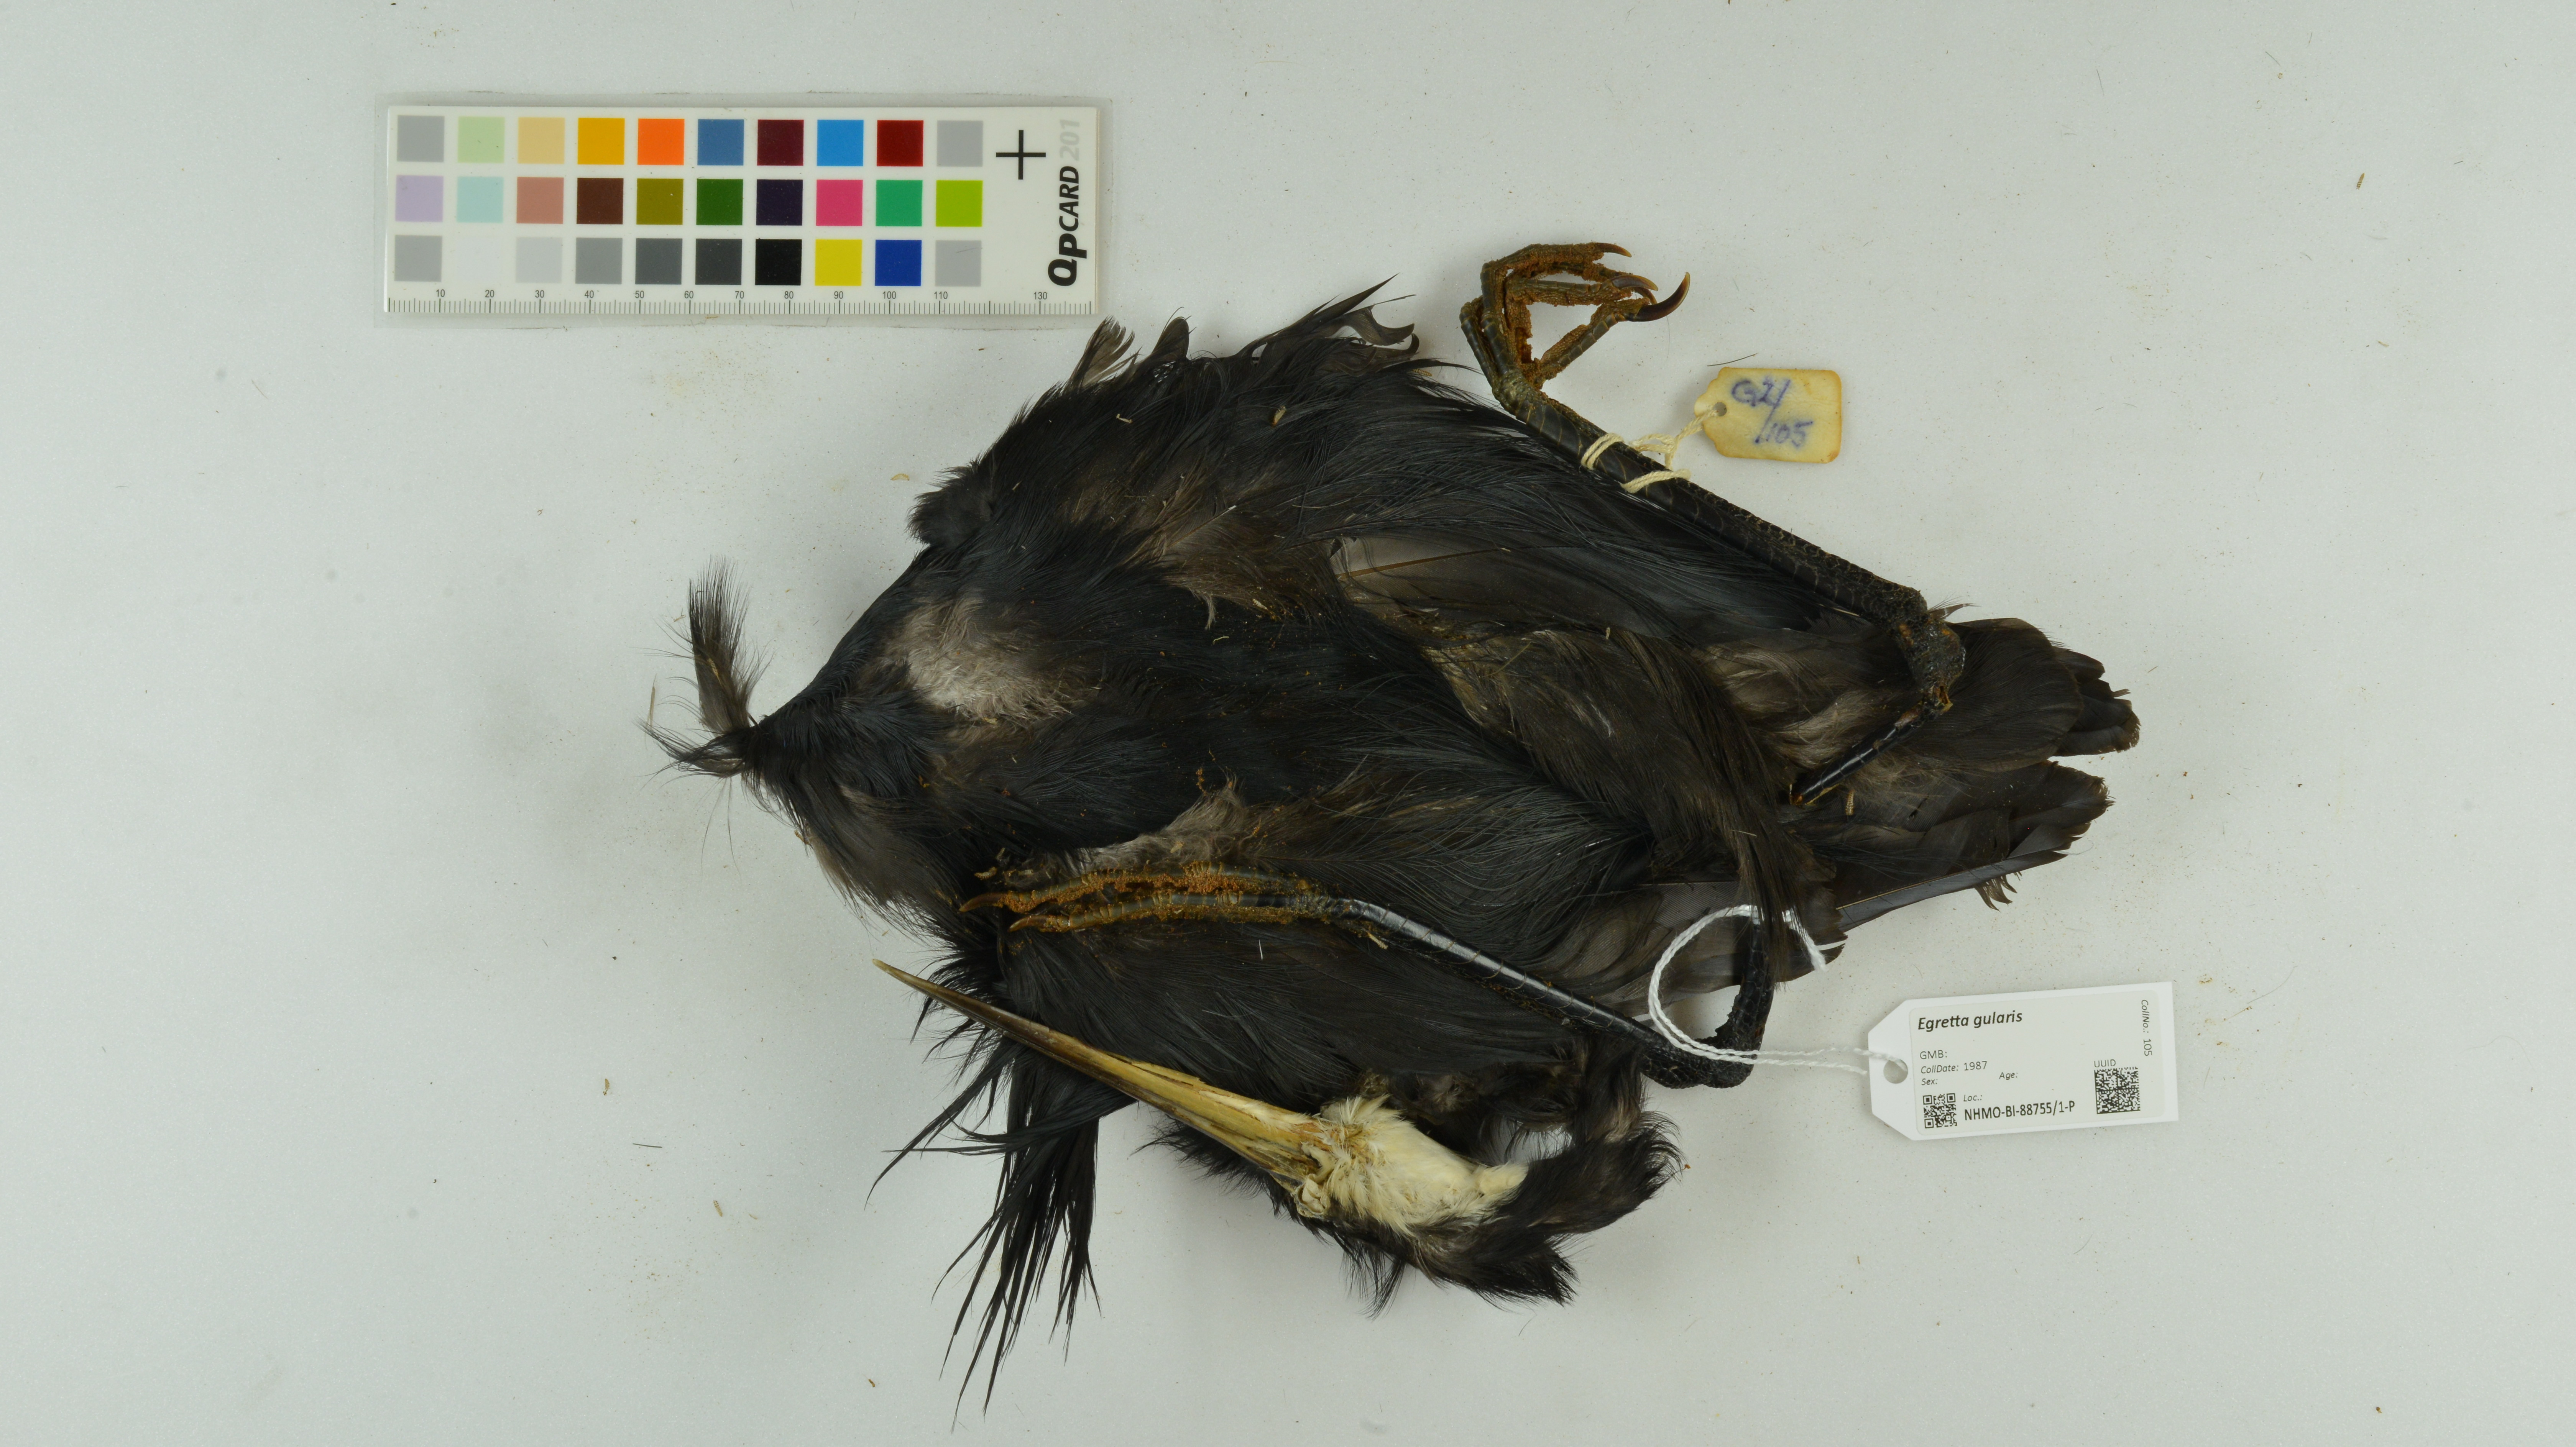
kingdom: Animalia
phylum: Chordata
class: Aves
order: Pelecaniformes
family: Ardeidae
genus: Egretta
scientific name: Egretta gularis
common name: Western reef-heron
